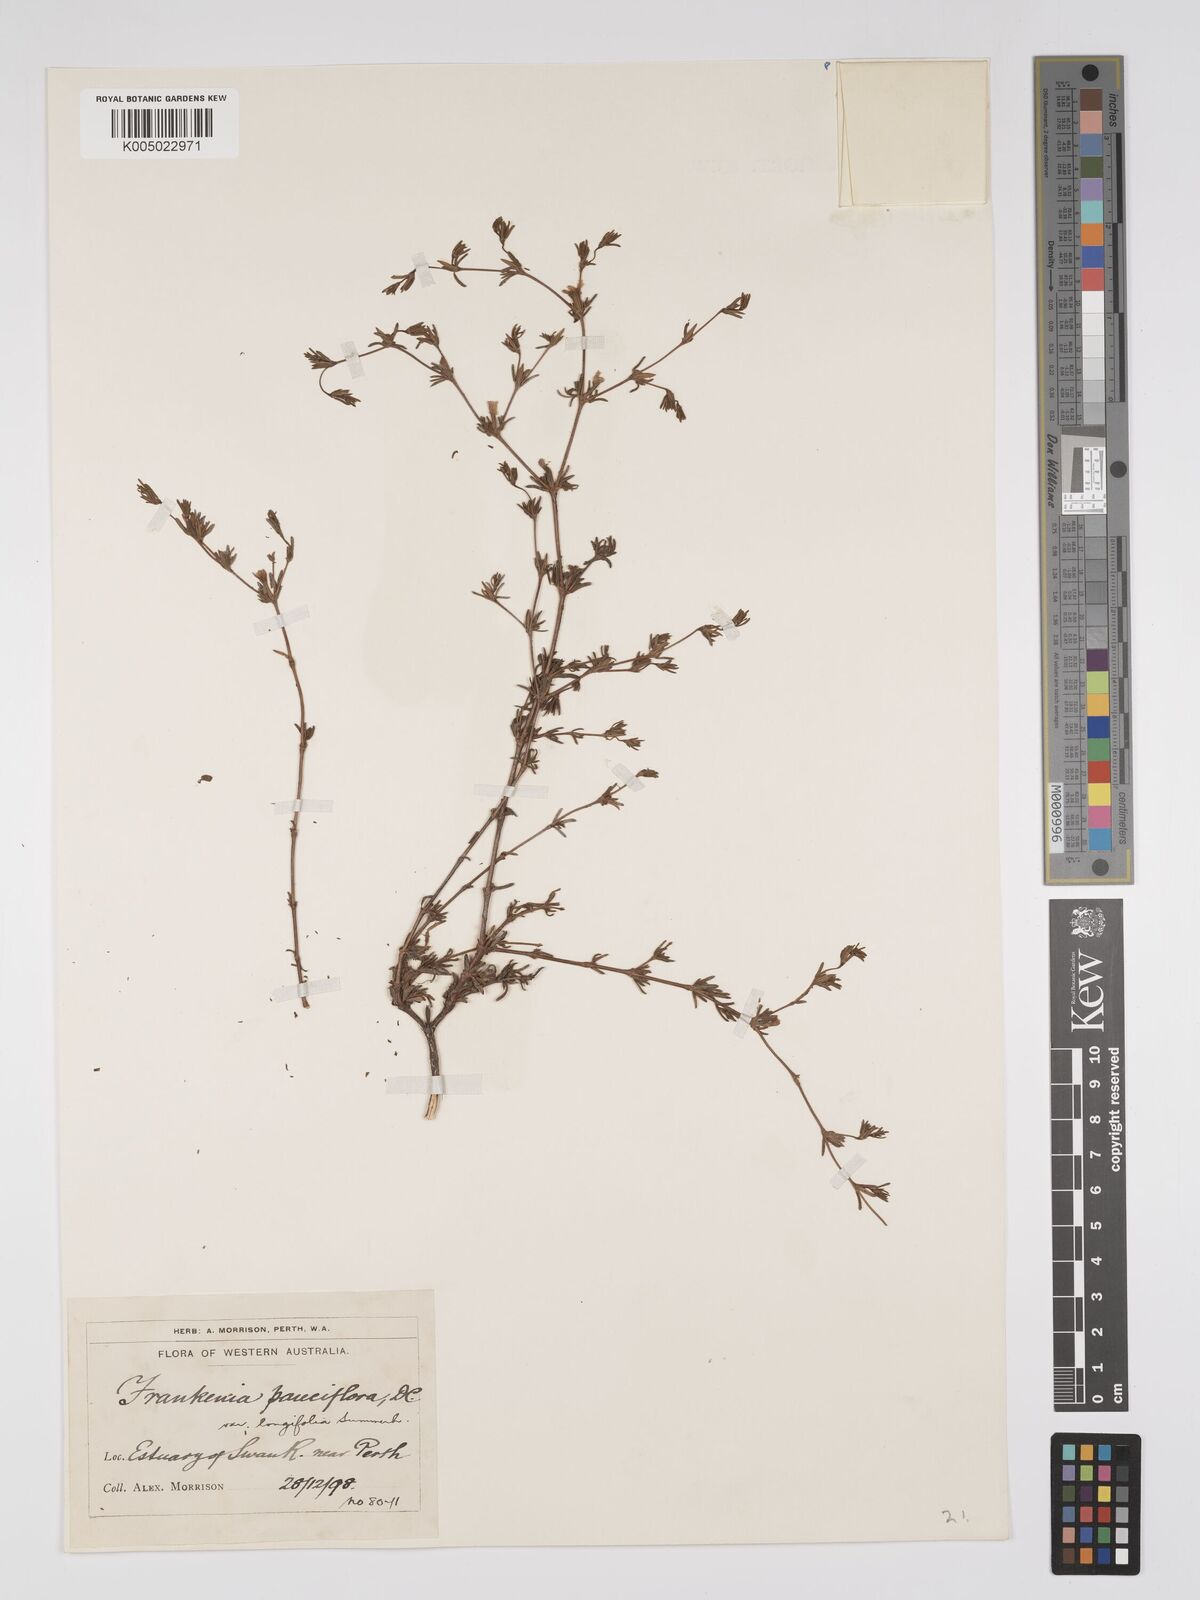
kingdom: Plantae
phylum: Tracheophyta
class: Magnoliopsida
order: Caryophyllales
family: Frankeniaceae
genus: Frankenia
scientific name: Frankenia pauciflora
